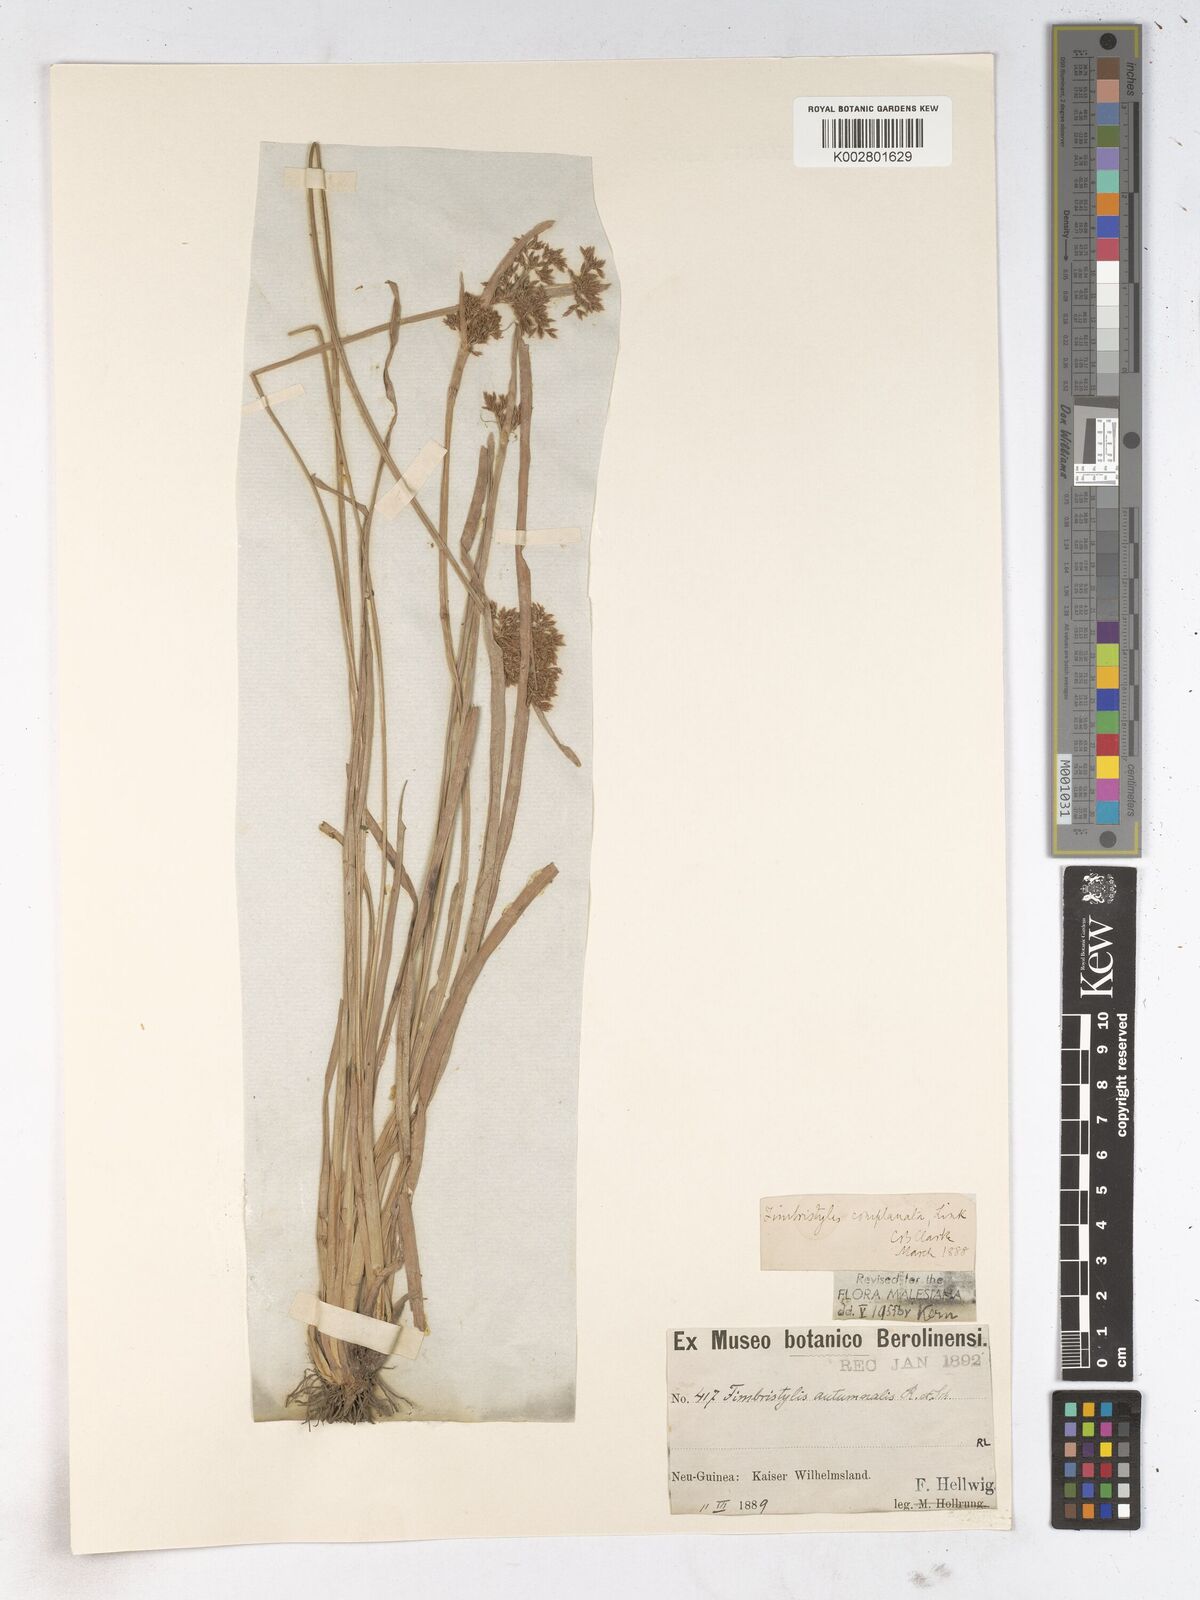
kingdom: Plantae
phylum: Tracheophyta
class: Liliopsida
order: Poales
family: Cyperaceae
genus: Fimbristylis
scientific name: Fimbristylis complanata
